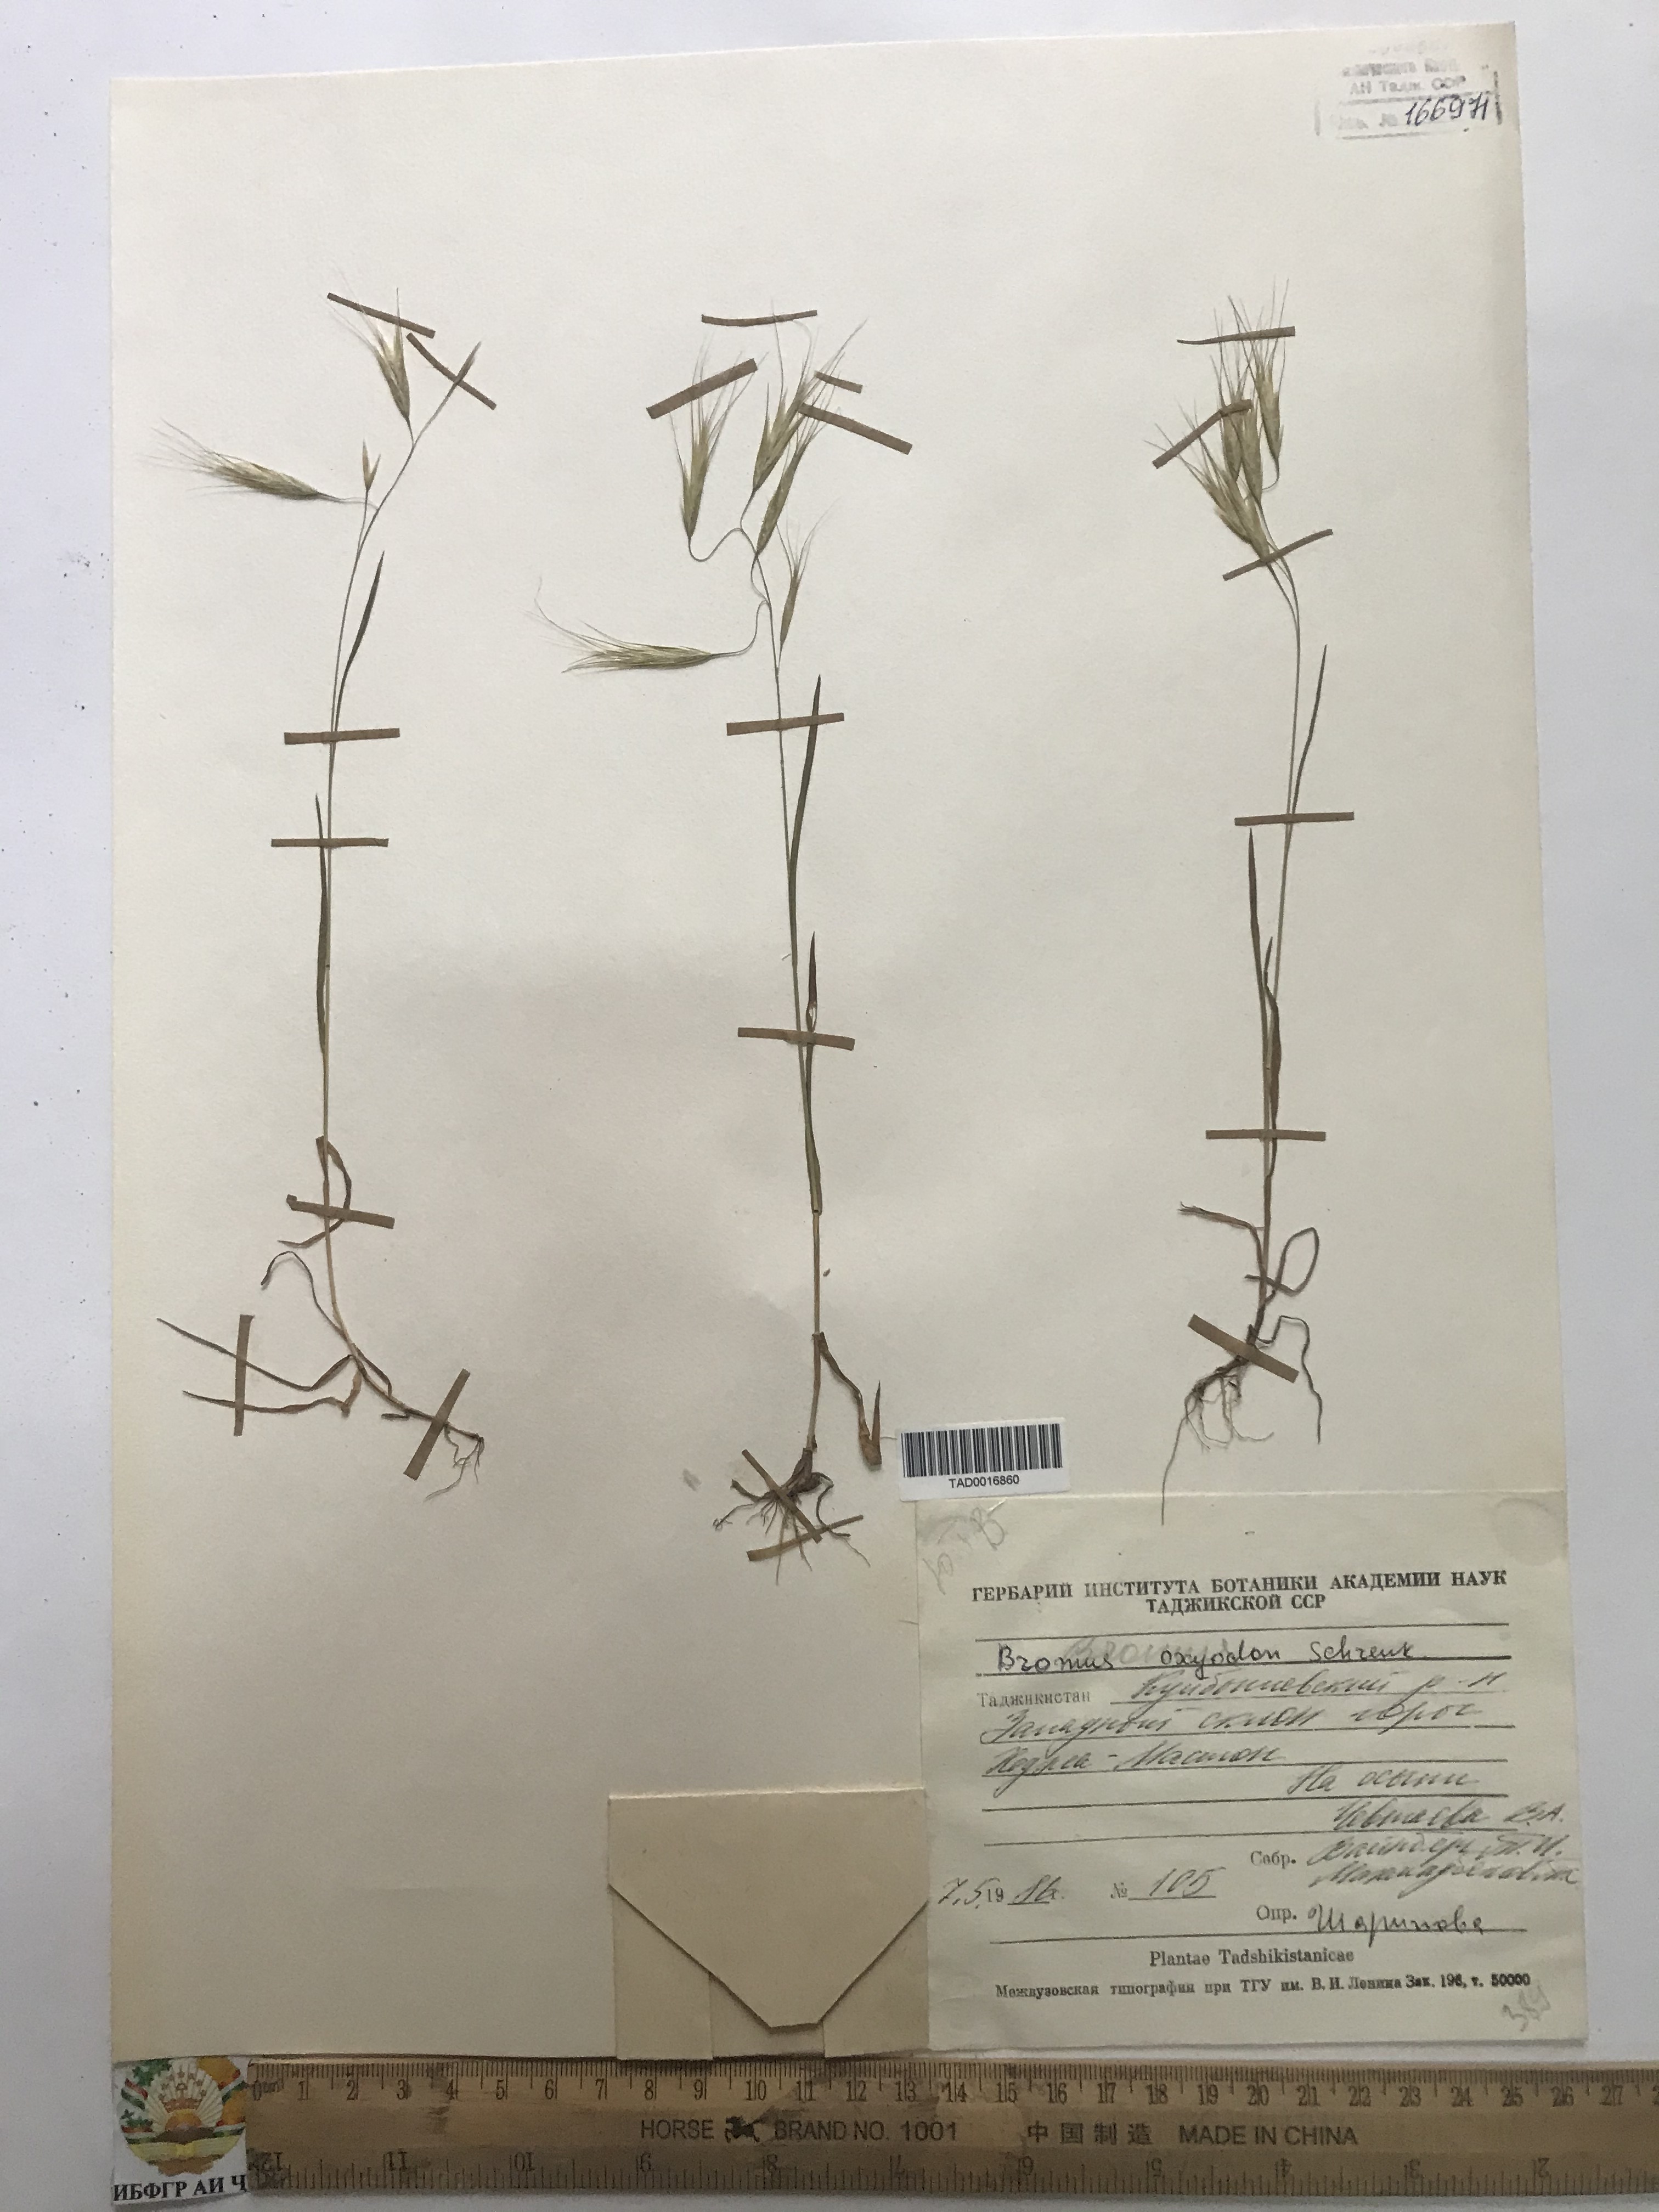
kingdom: Plantae
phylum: Tracheophyta
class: Liliopsida
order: Poales
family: Poaceae
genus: Bromus
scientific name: Bromus oxyodon
